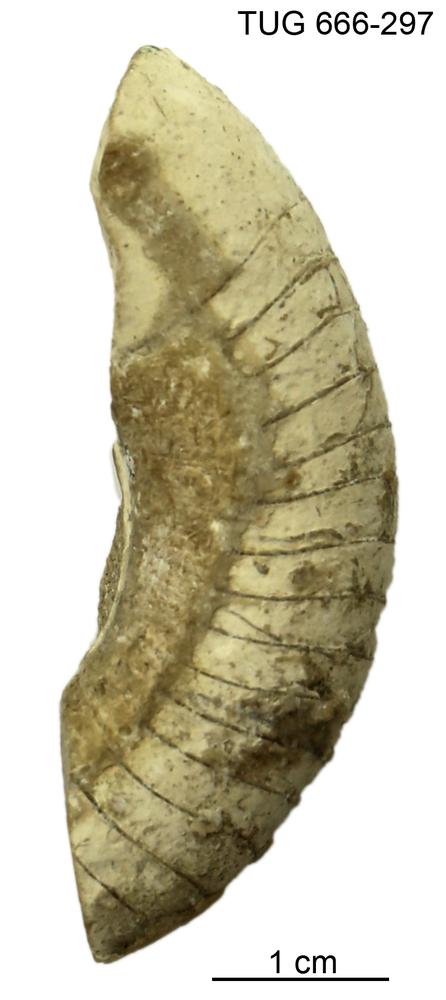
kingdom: Animalia
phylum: Mollusca
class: Cephalopoda
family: Trocholitidae
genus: Discoceras
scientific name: Discoceras
